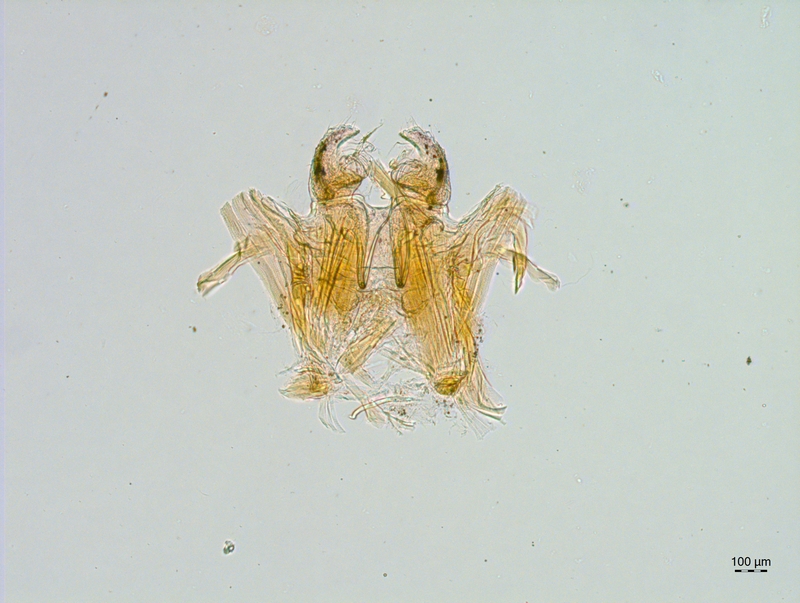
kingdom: Animalia
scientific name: Animalia
